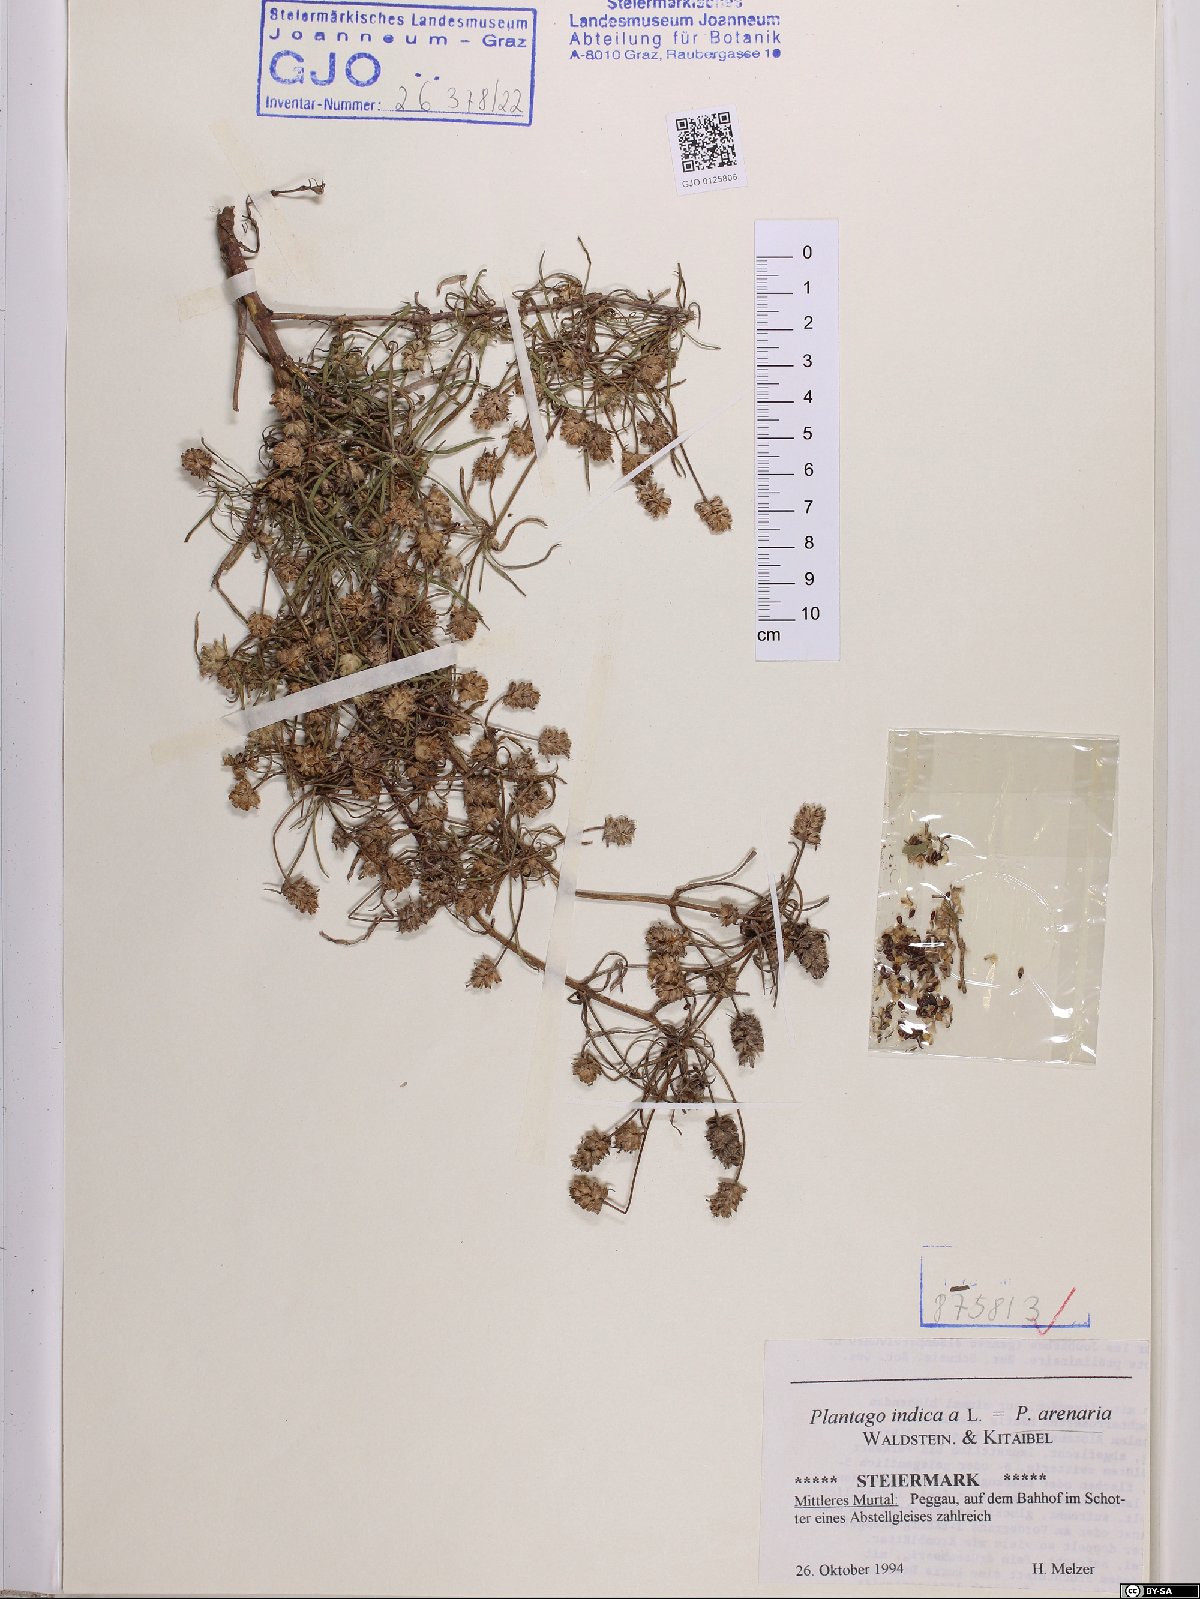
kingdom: Plantae
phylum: Tracheophyta
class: Magnoliopsida
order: Lamiales
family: Plantaginaceae
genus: Plantago
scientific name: Plantago arenaria
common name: Branched plantain
